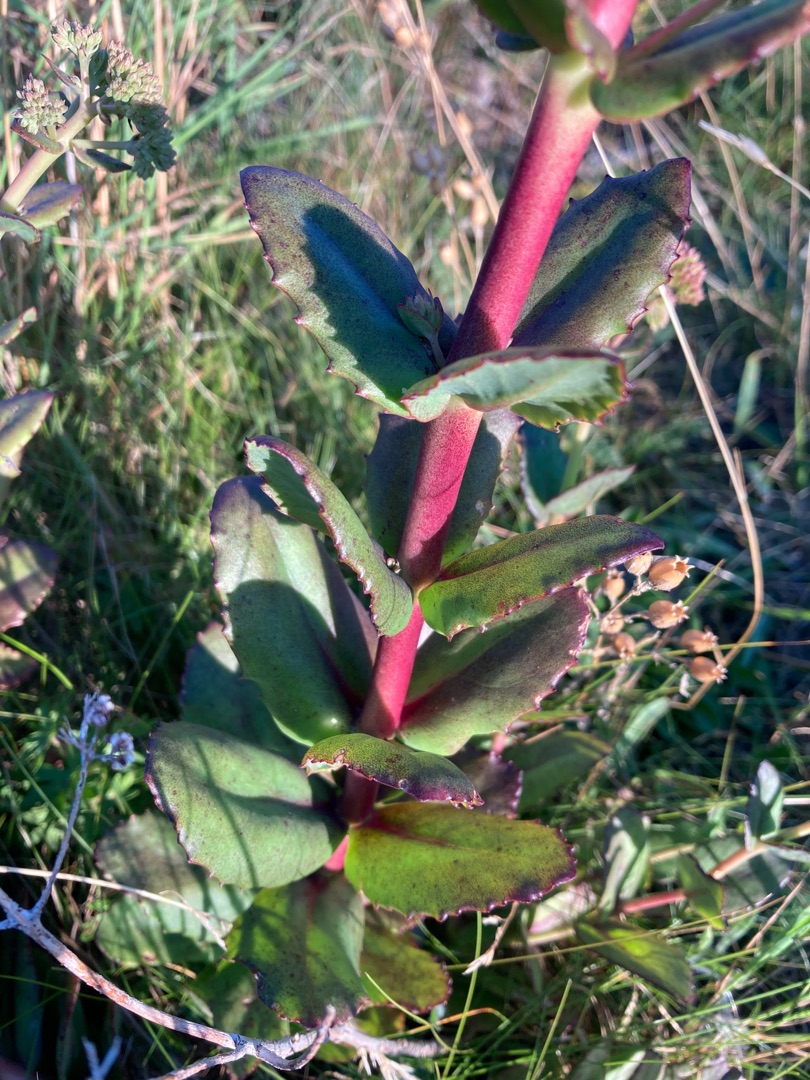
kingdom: Plantae
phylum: Tracheophyta
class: Magnoliopsida
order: Saxifragales
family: Crassulaceae
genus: Hylotelephium
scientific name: Hylotelephium maximum
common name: Almindelig sankthansurt
